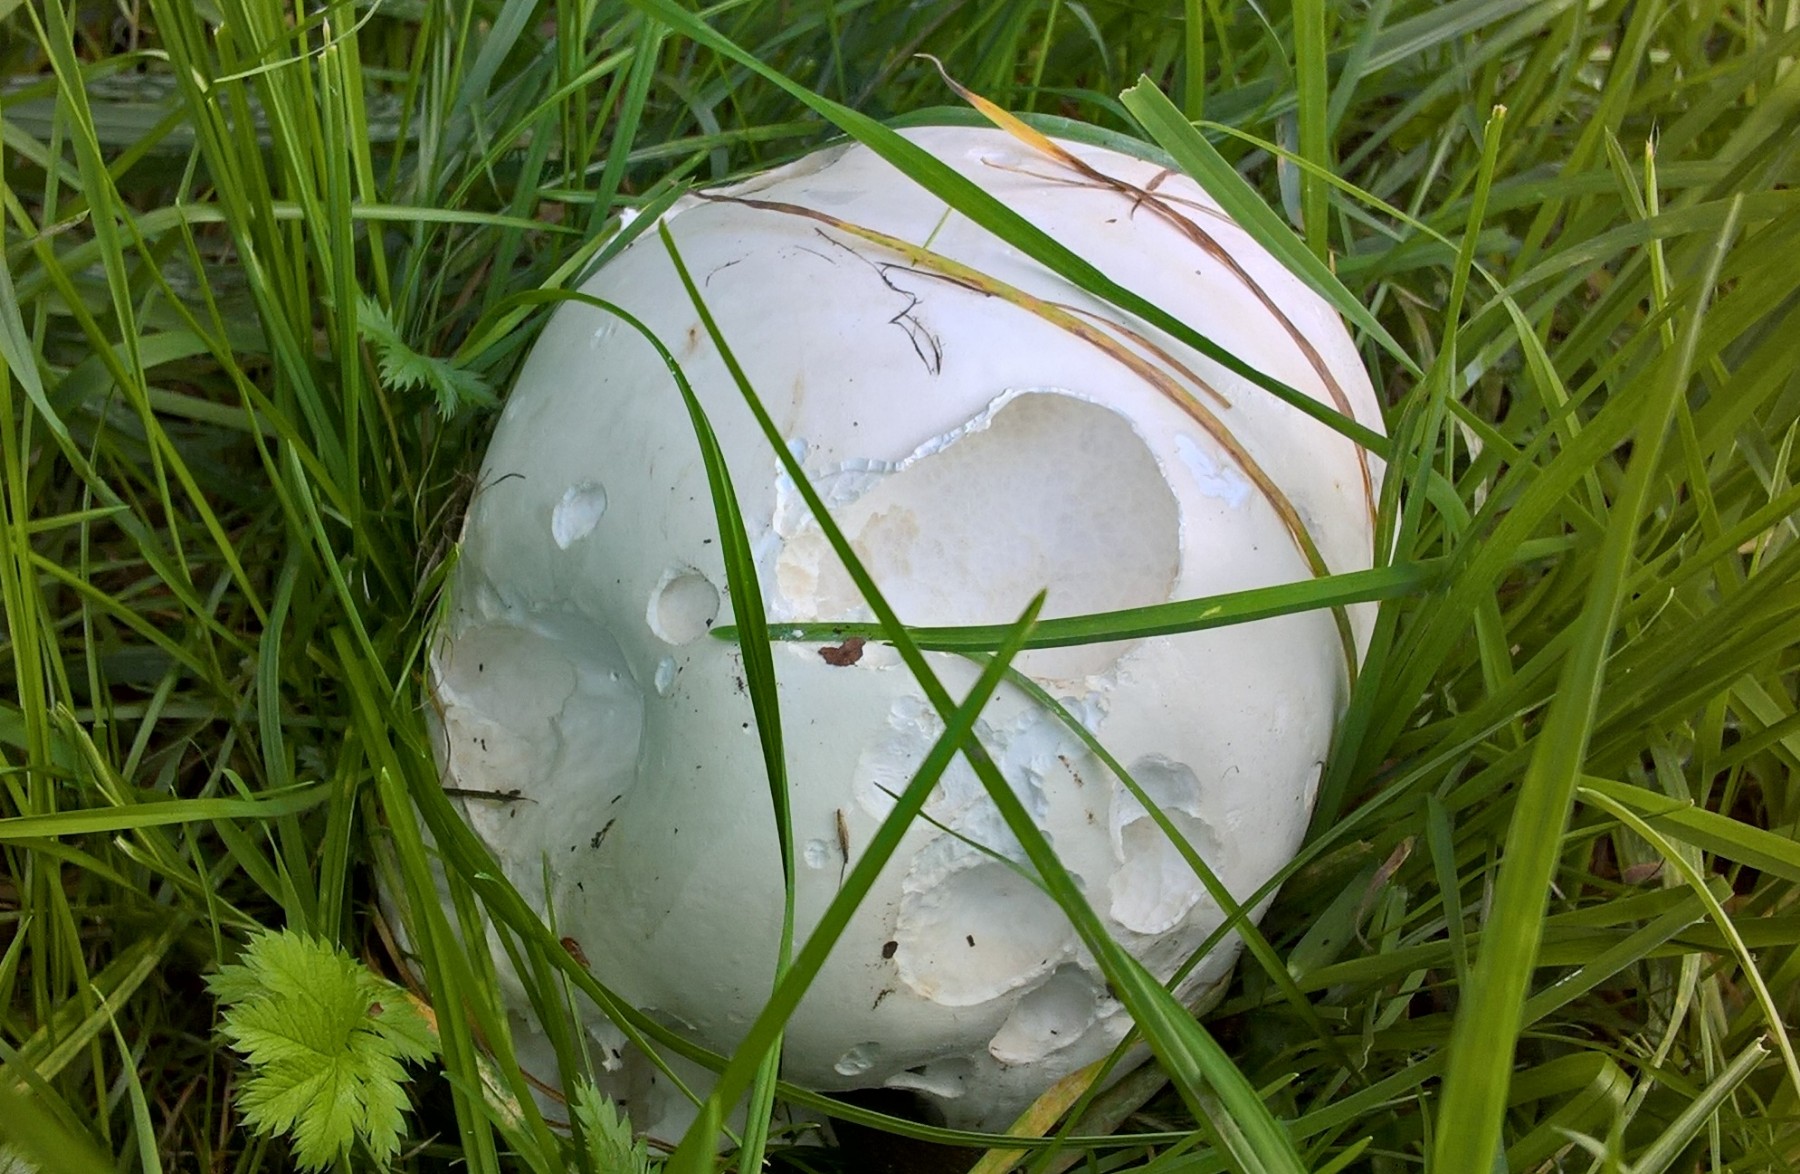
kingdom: Fungi
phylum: Basidiomycota
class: Agaricomycetes
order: Agaricales
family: Lycoperdaceae
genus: Calvatia
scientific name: Calvatia gigantea
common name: kæmpestøvbold
